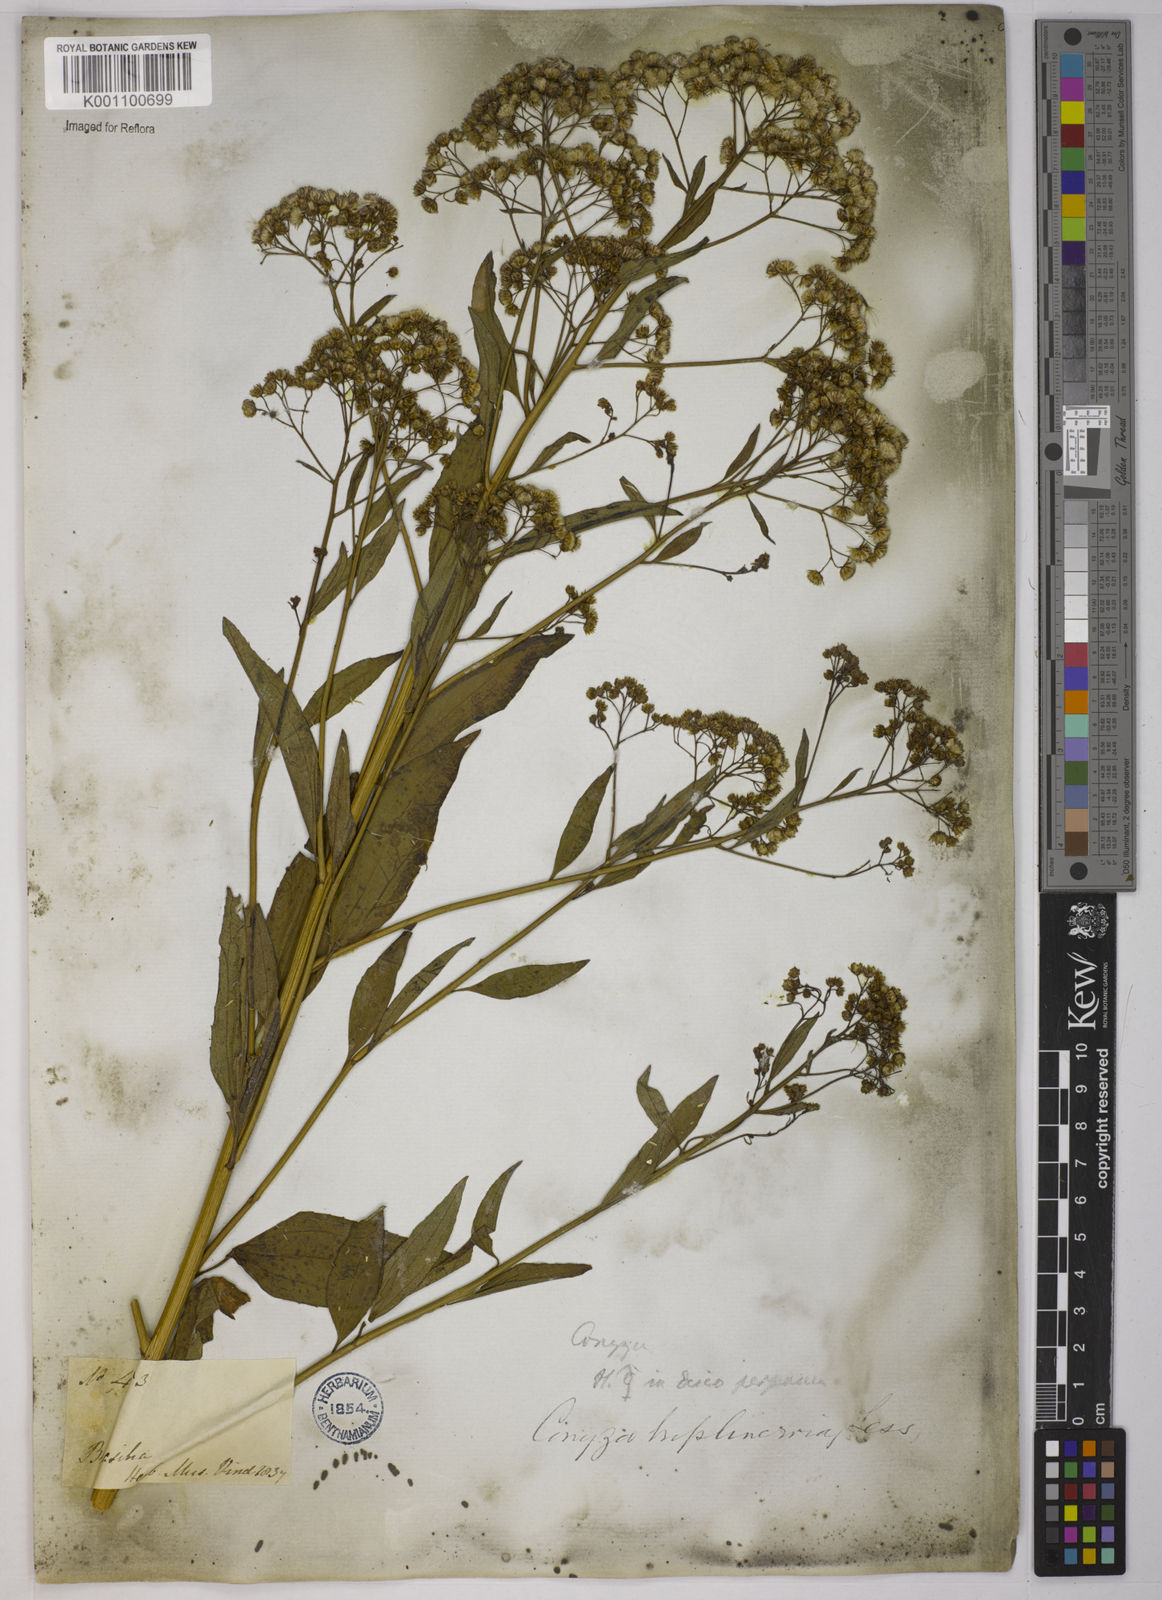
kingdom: Plantae
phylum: Tracheophyta
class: Magnoliopsida
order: Asterales
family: Asteraceae
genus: Archibaccharis
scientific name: Archibaccharis vulneraria
